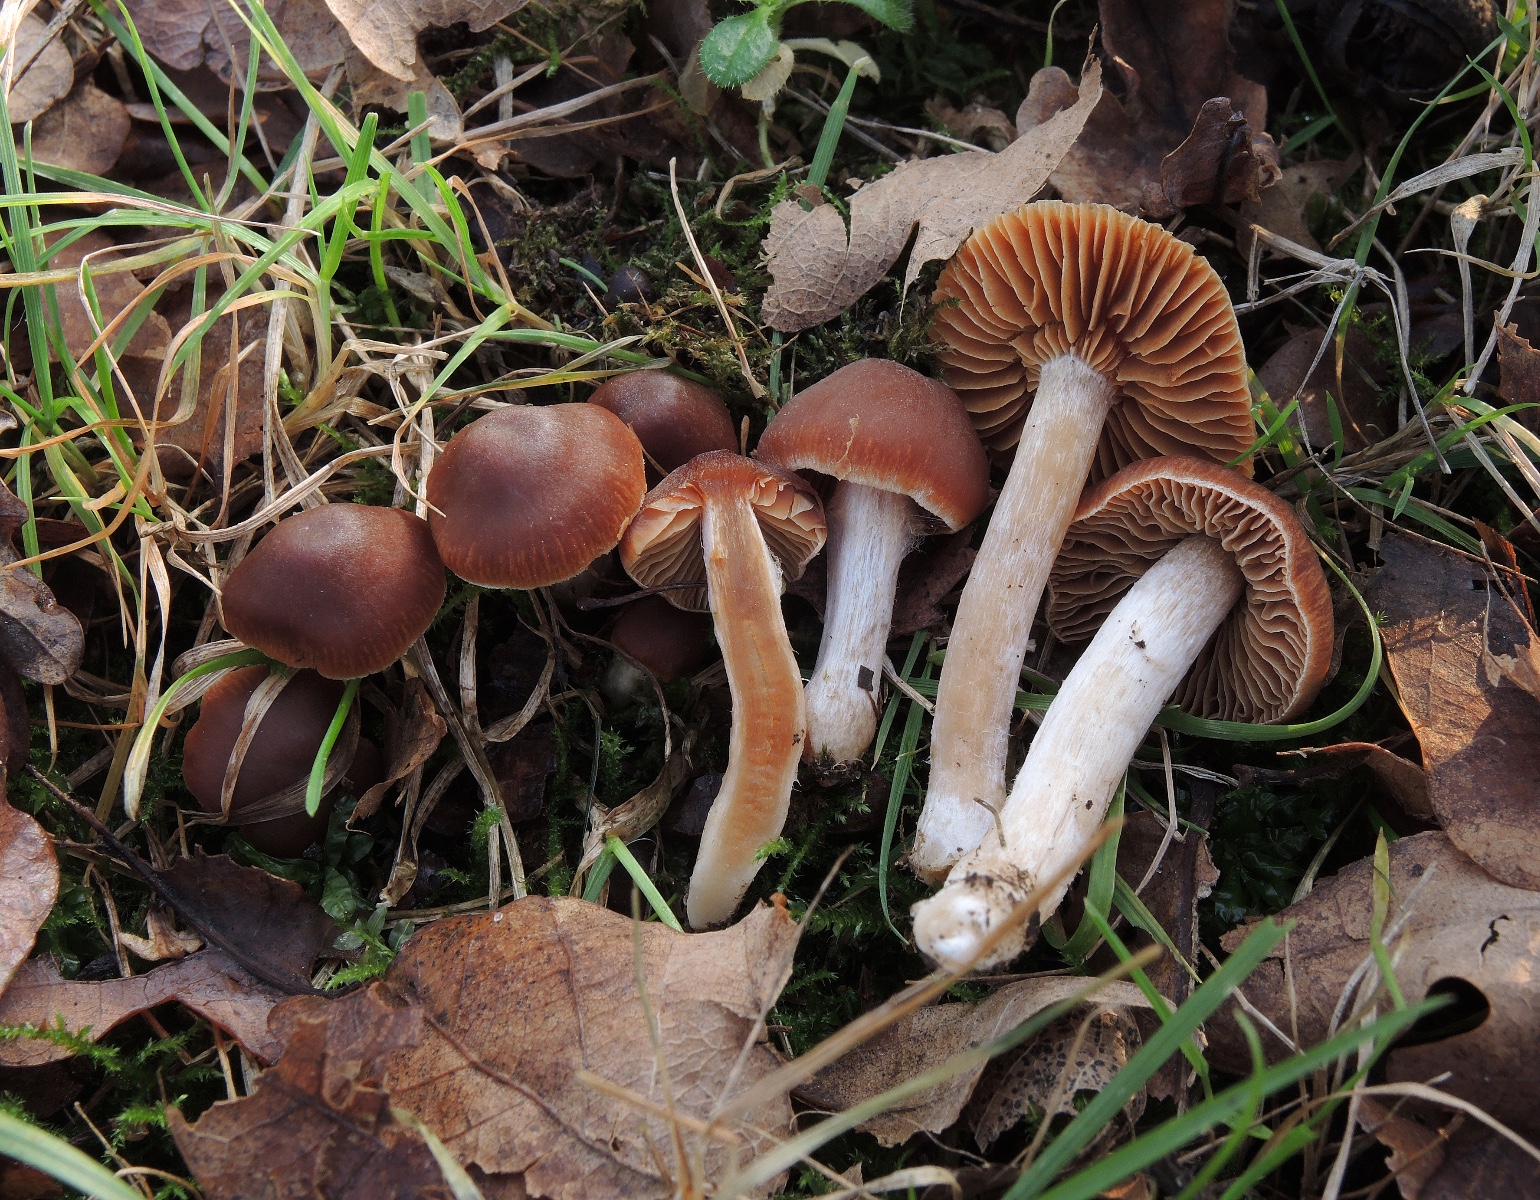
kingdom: Fungi
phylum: Basidiomycota
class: Agaricomycetes
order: Agaricales
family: Cortinariaceae
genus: Cortinarius
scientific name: Cortinarius incisus
